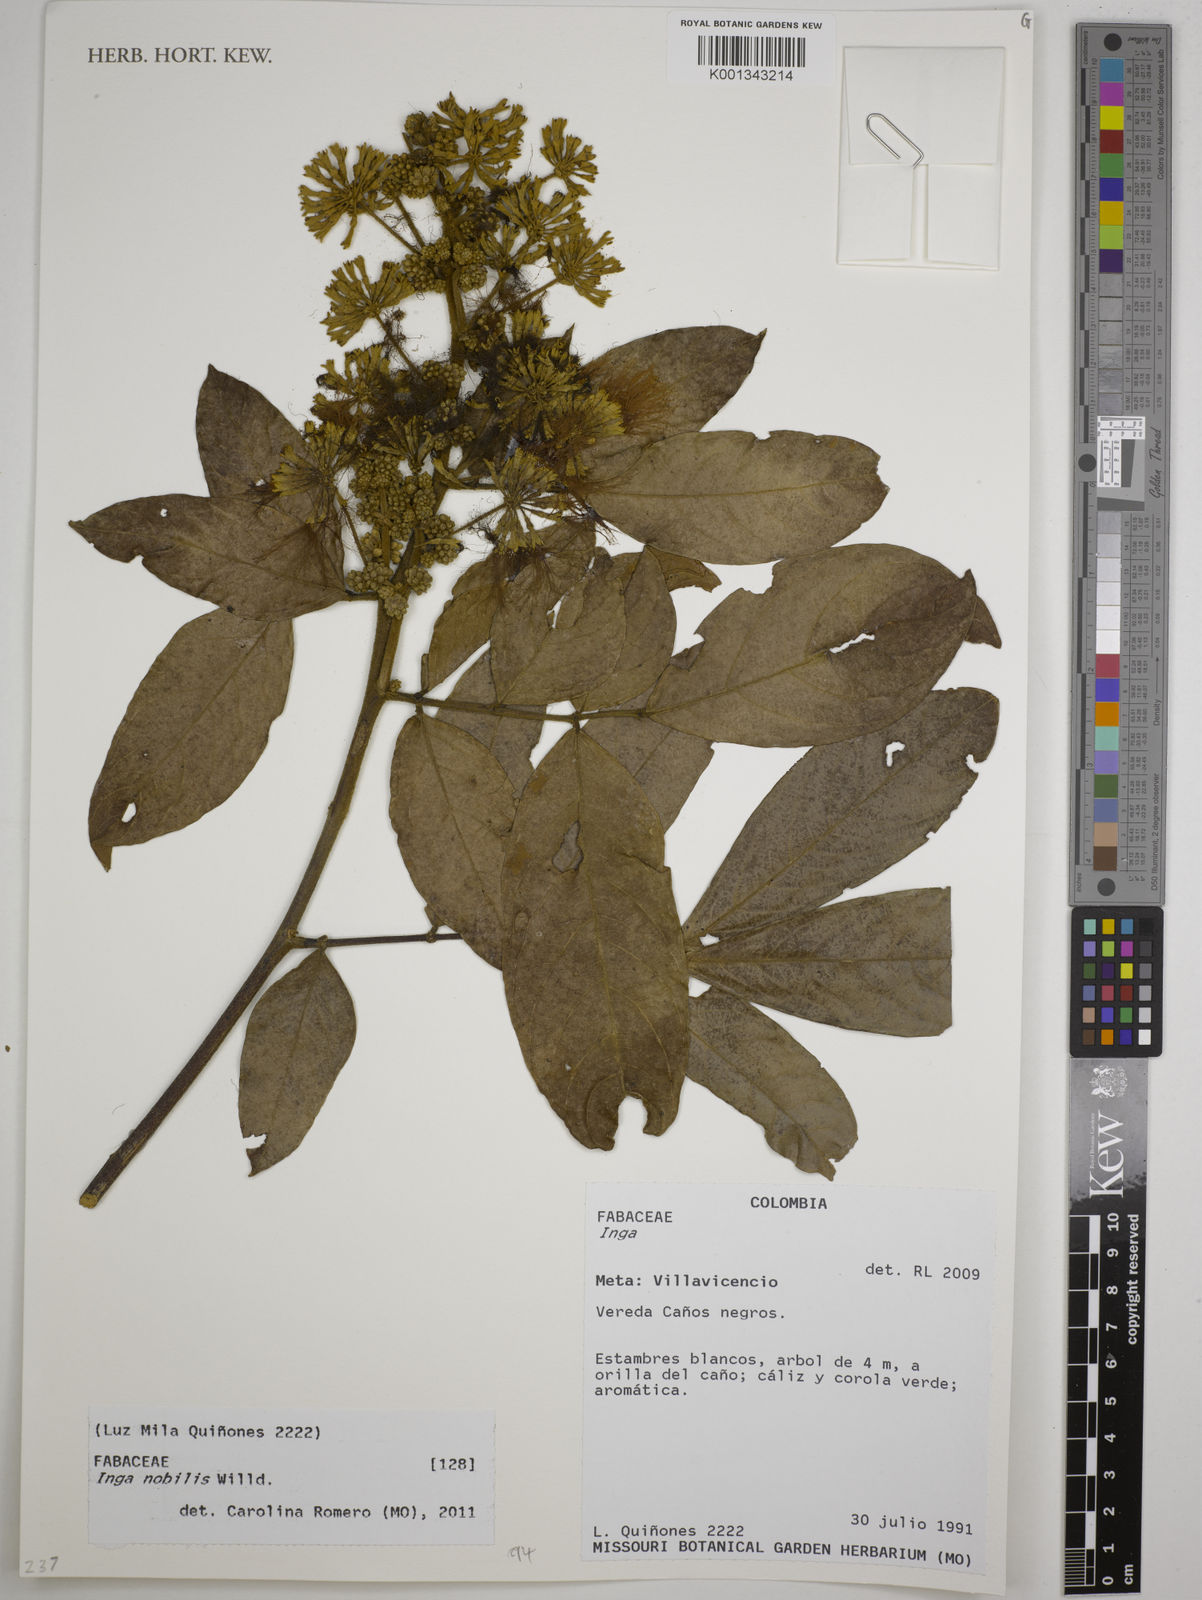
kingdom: Plantae
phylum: Tracheophyta
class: Magnoliopsida
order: Fabales
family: Fabaceae
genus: Inga
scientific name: Inga nobilis
